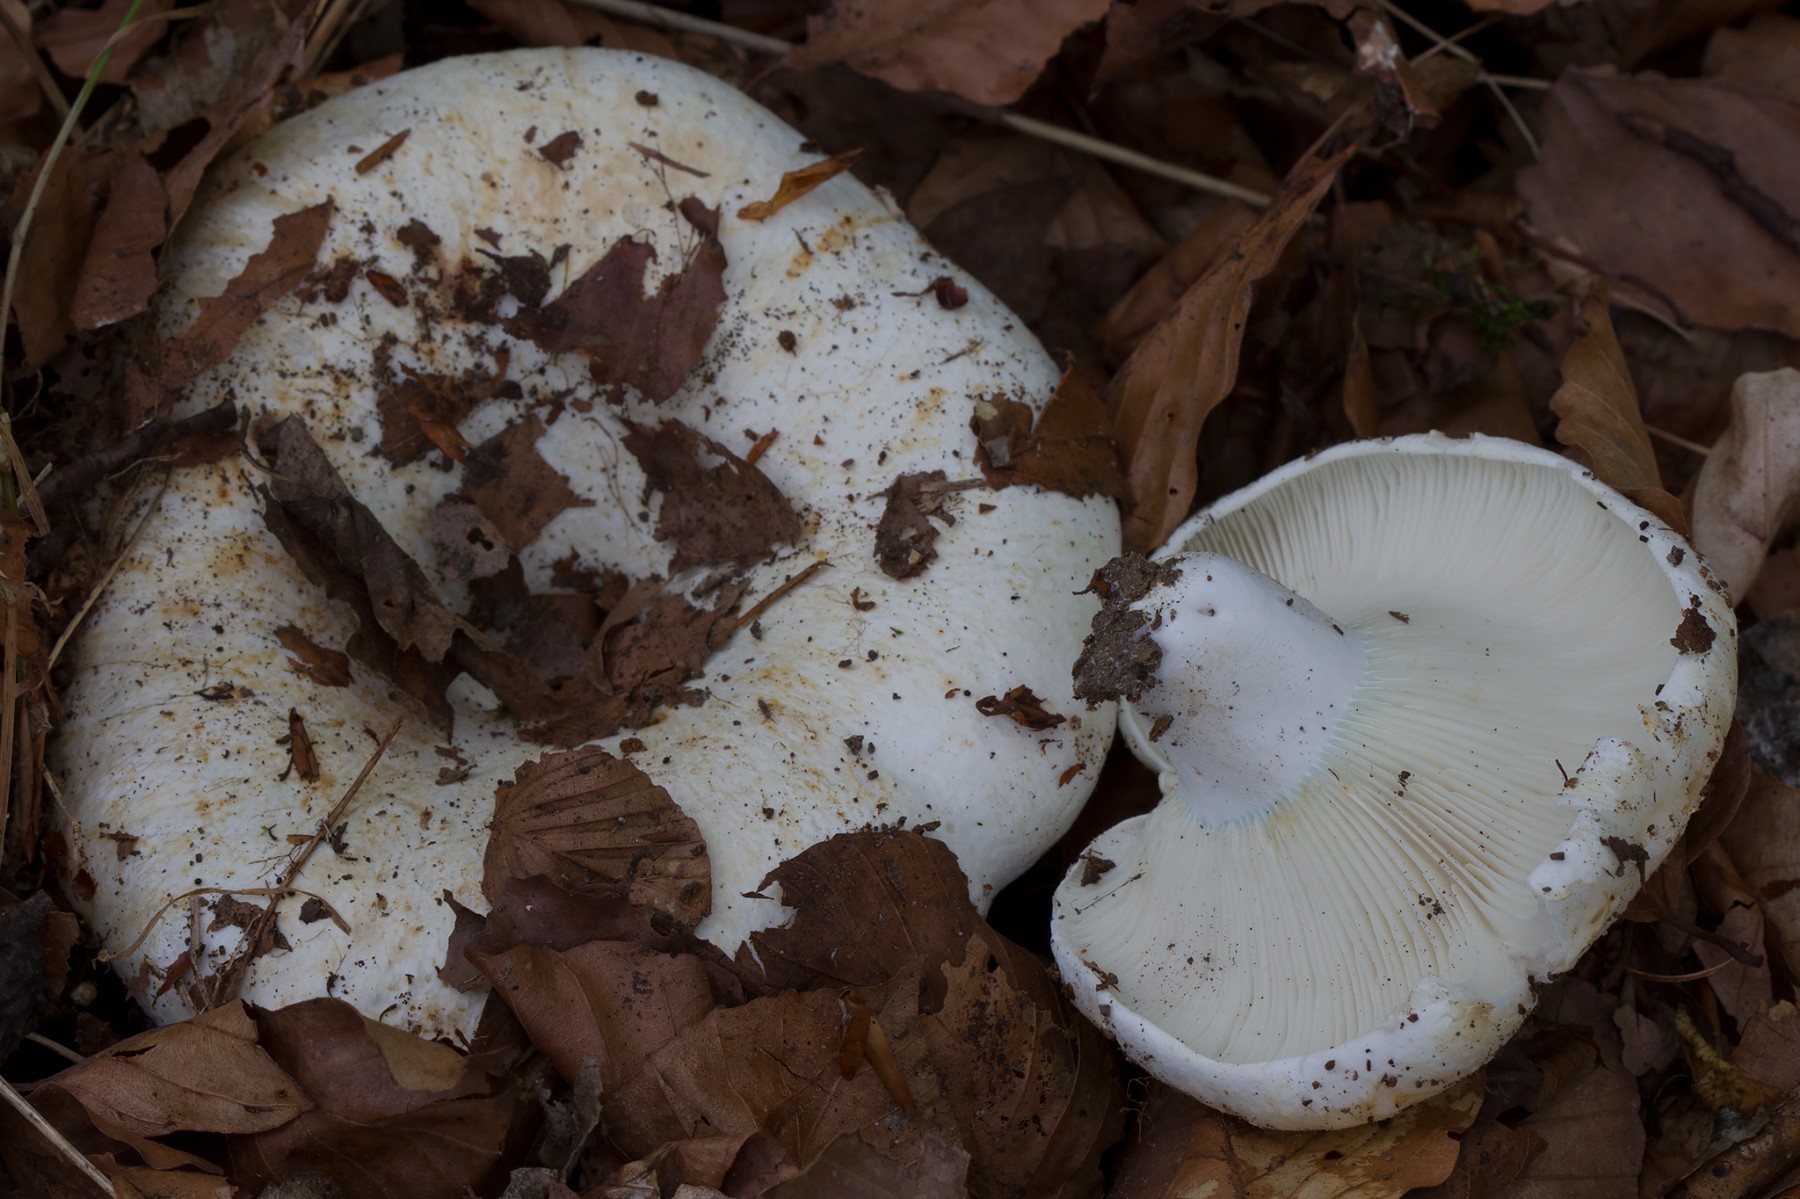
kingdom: Fungi
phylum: Basidiomycota
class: Agaricomycetes
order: Russulales
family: Russulaceae
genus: Russula
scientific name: Russula chloroides
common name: grønhalset tragt-skørhat
